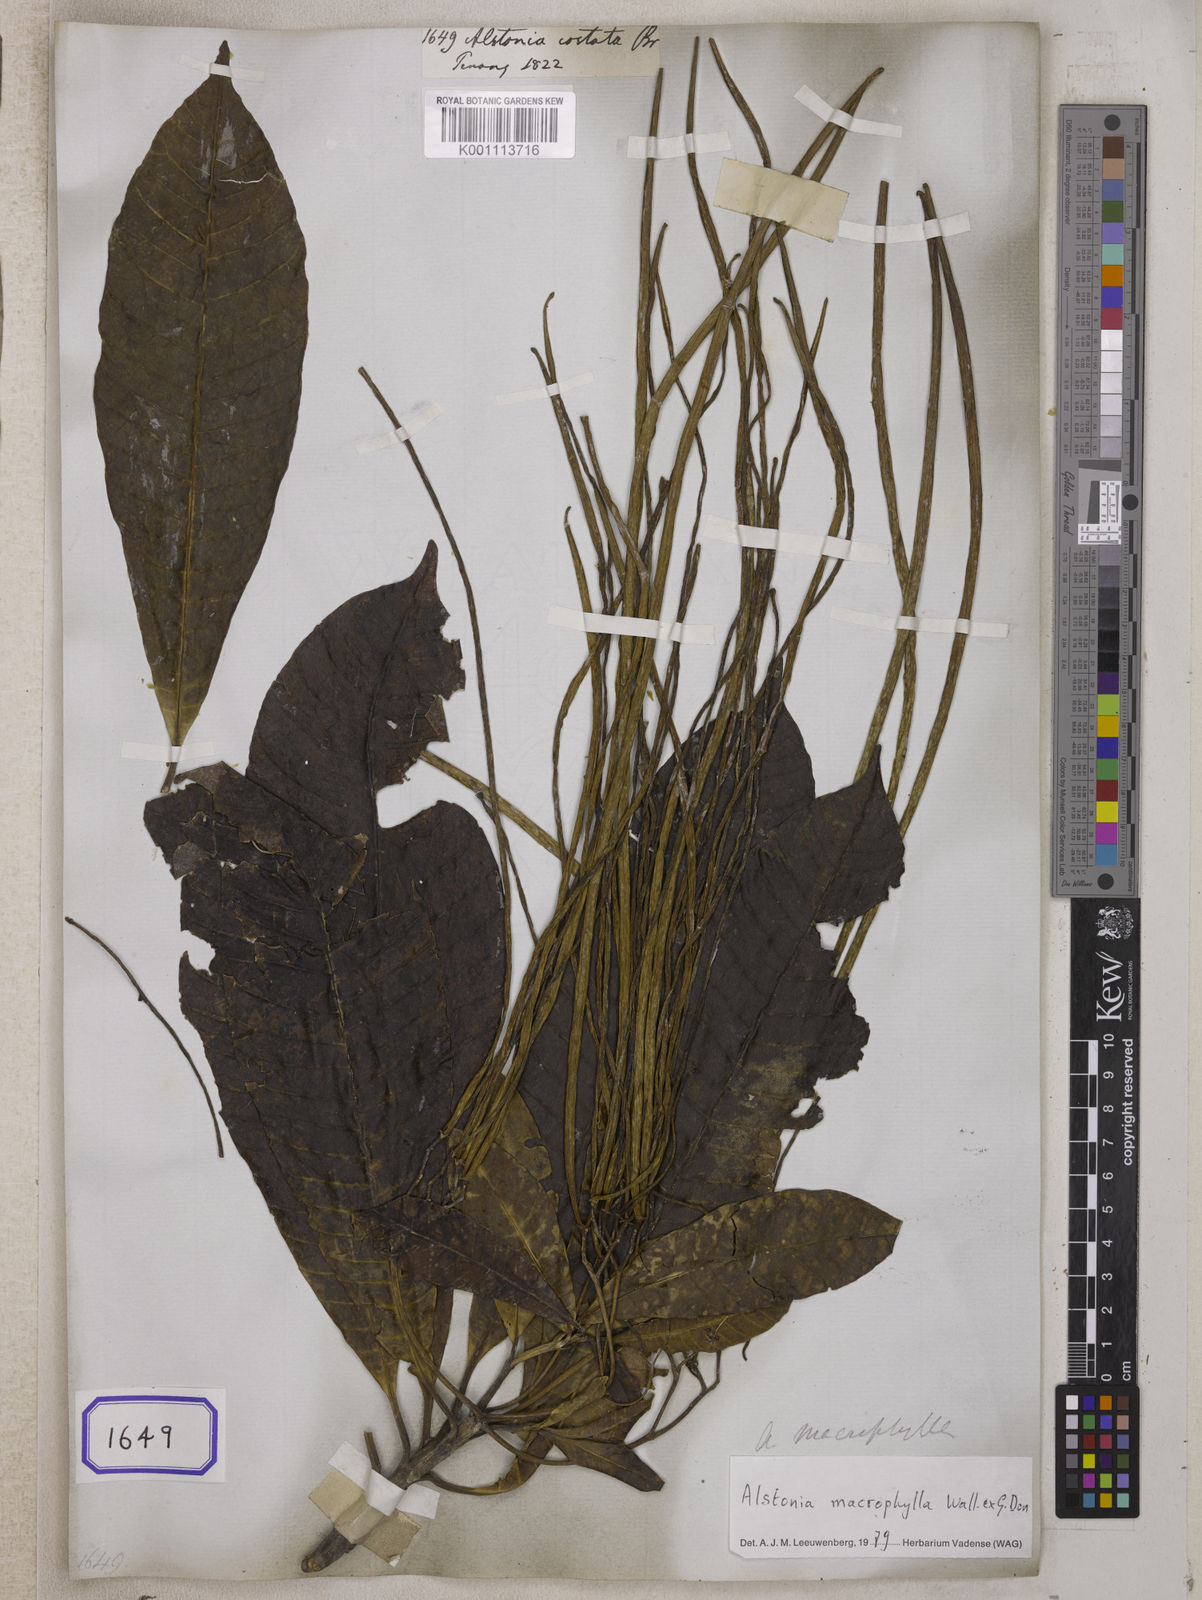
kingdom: Plantae
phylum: Tracheophyta
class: Magnoliopsida
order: Gentianales
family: Apocynaceae
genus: Alstonia
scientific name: Alstonia costata
